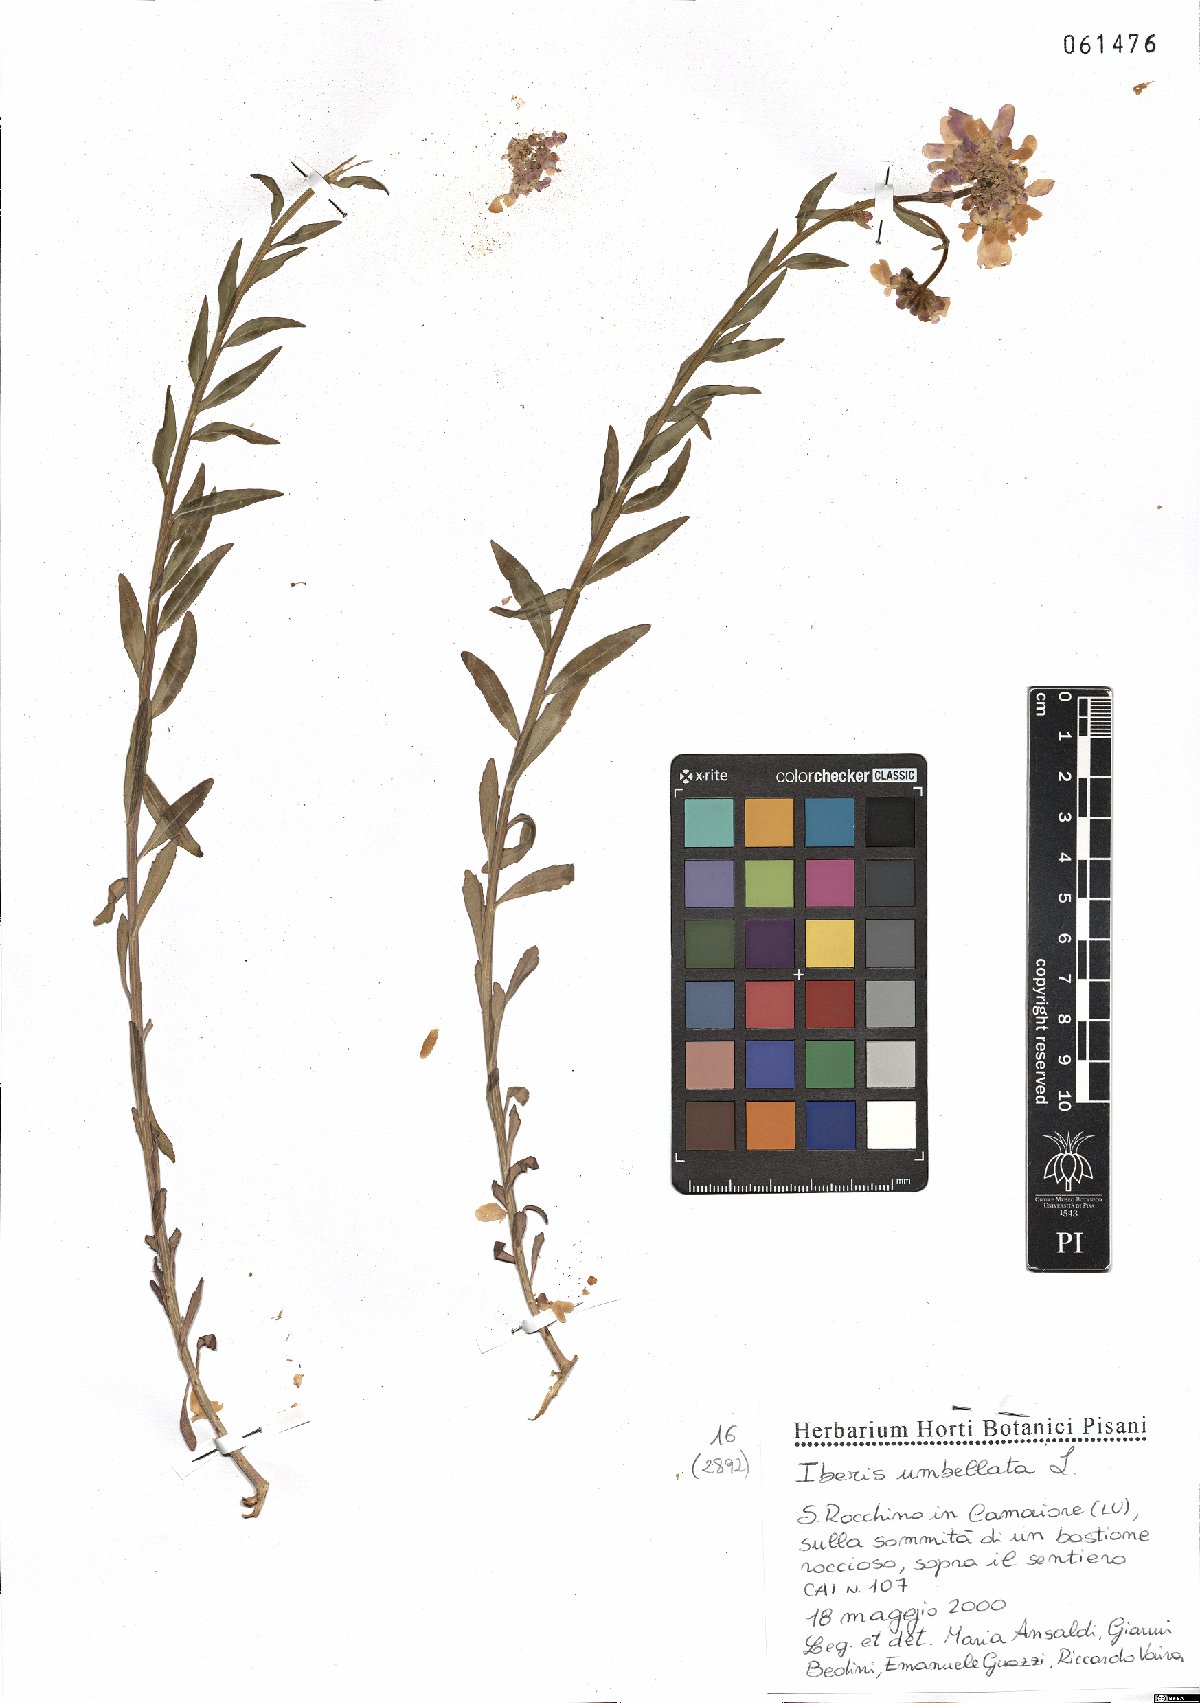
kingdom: Plantae
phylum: Tracheophyta
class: Magnoliopsida
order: Brassicales
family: Brassicaceae
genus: Iberis
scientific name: Iberis umbellata
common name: Globe candytuft
